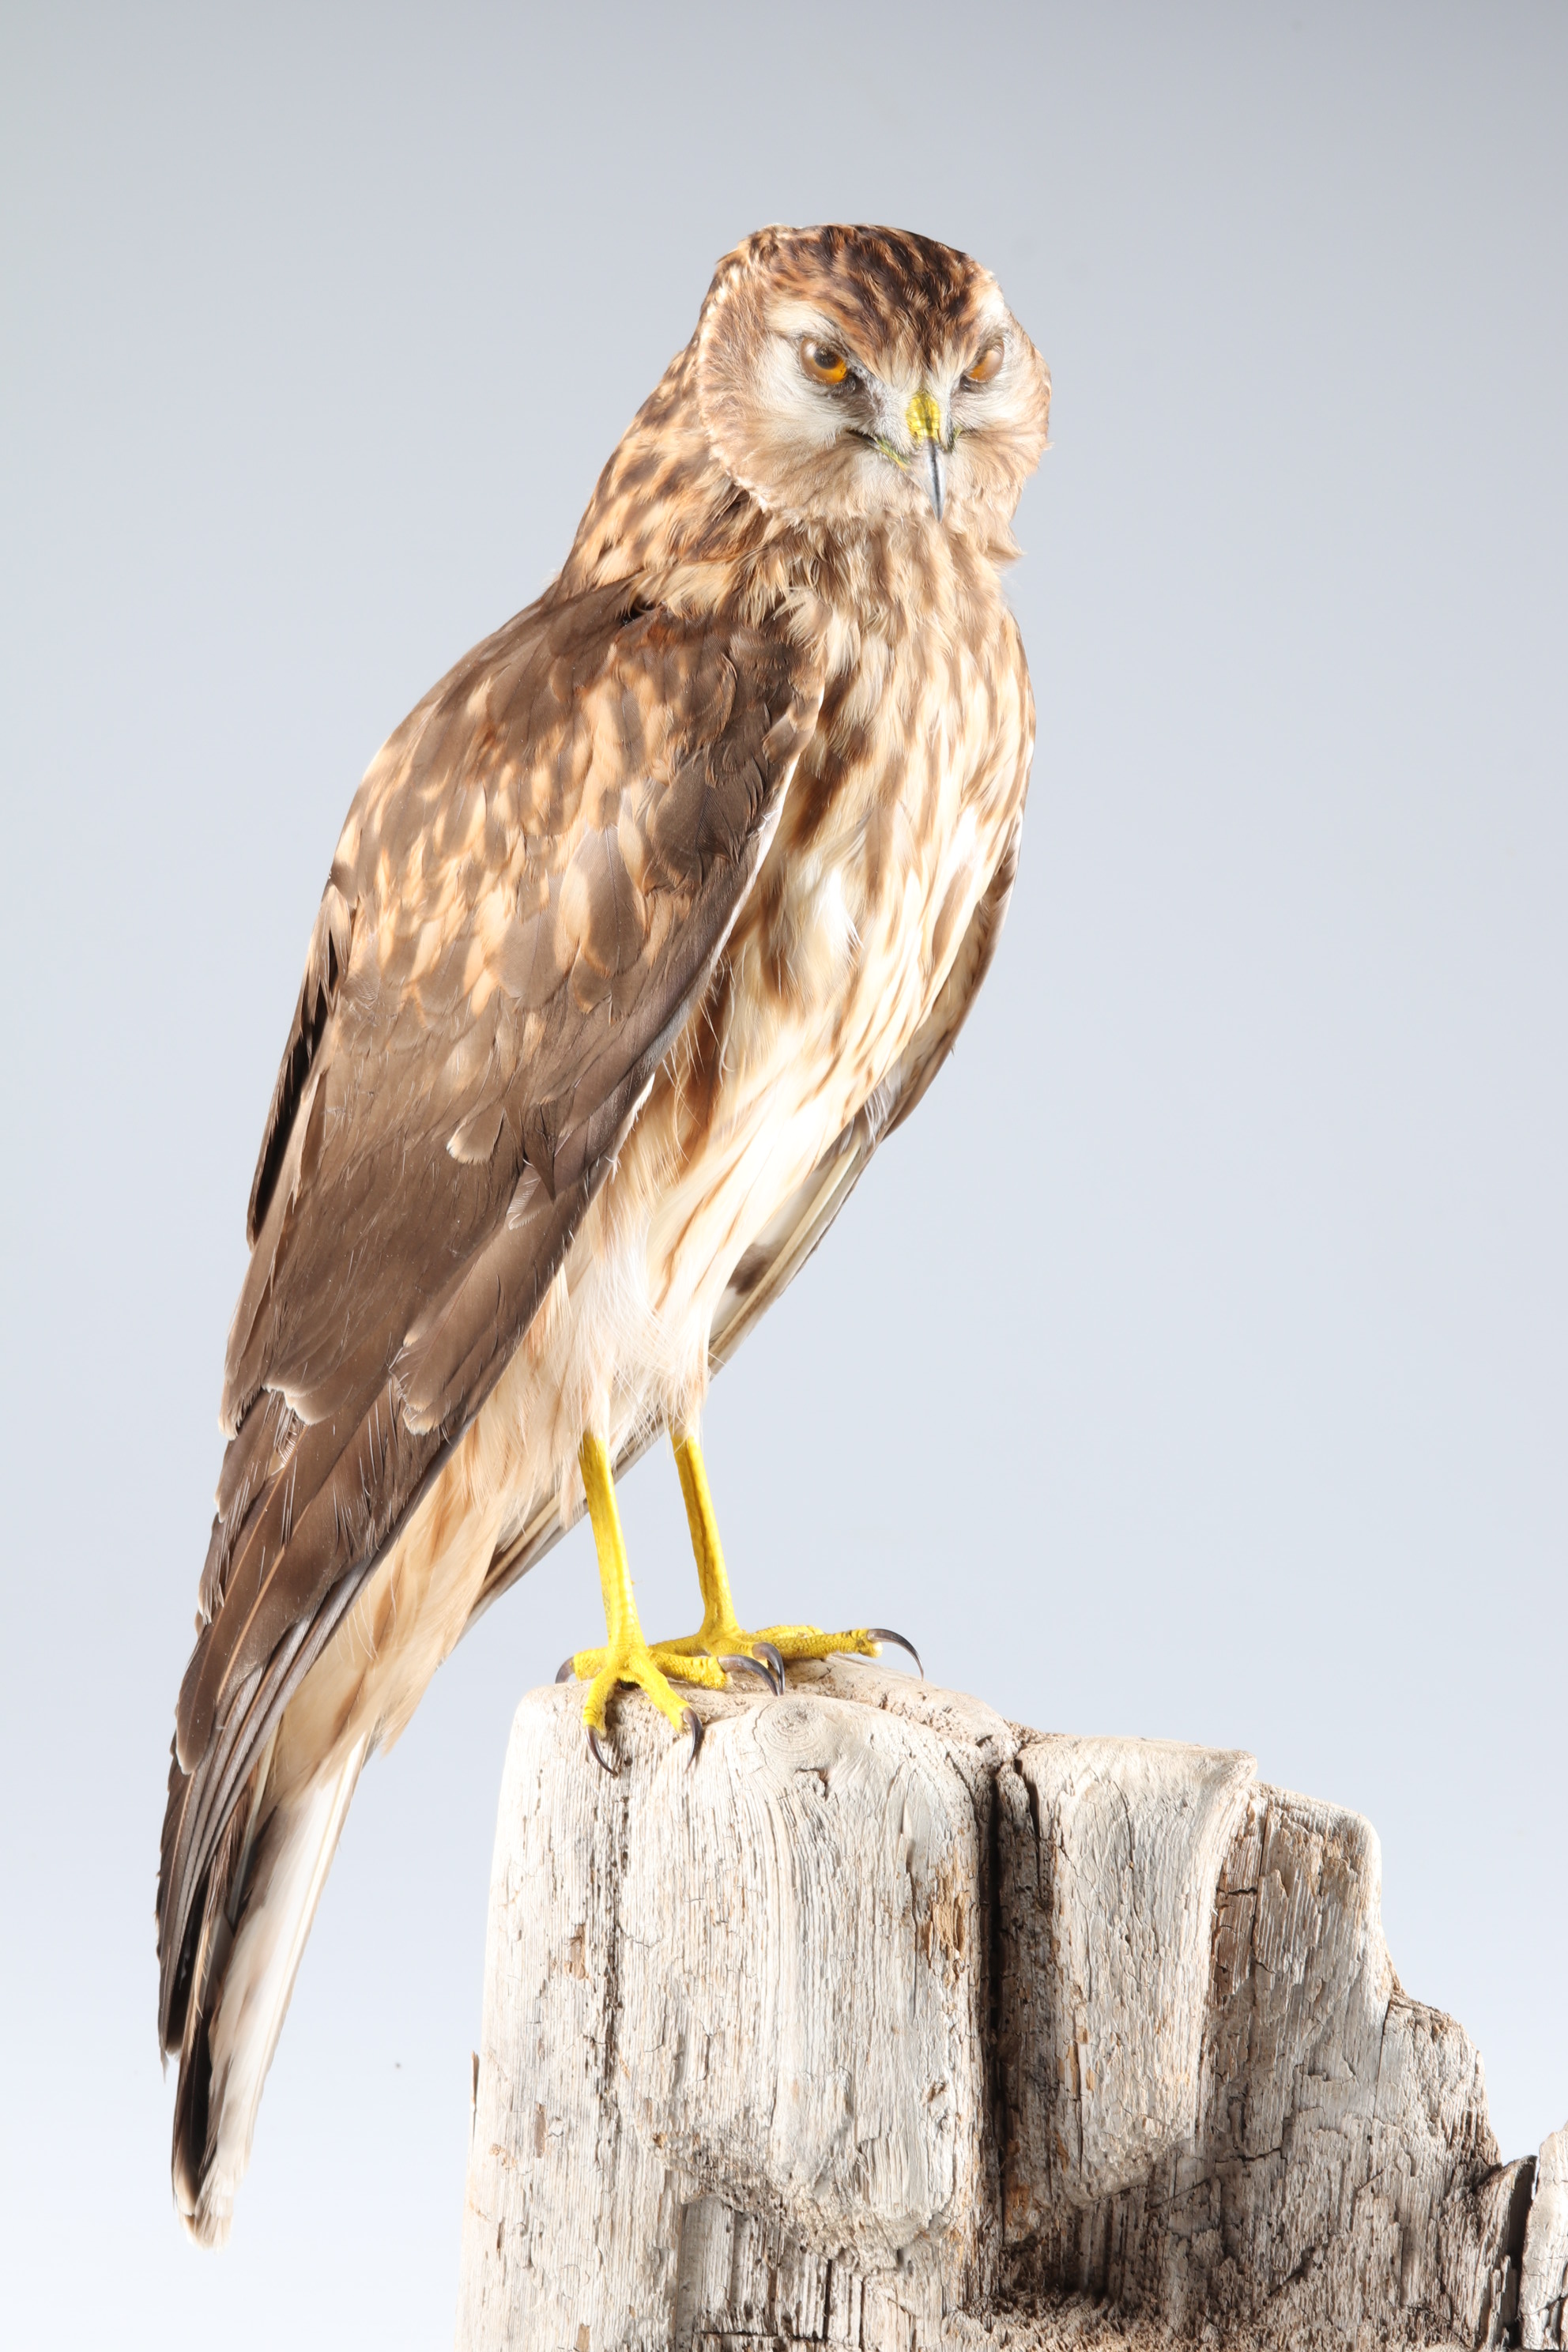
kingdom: Animalia
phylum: Chordata
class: Aves
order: Accipitriformes
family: Accipitridae
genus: Circus
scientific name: Circus cyaneus
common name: Hen harrier
